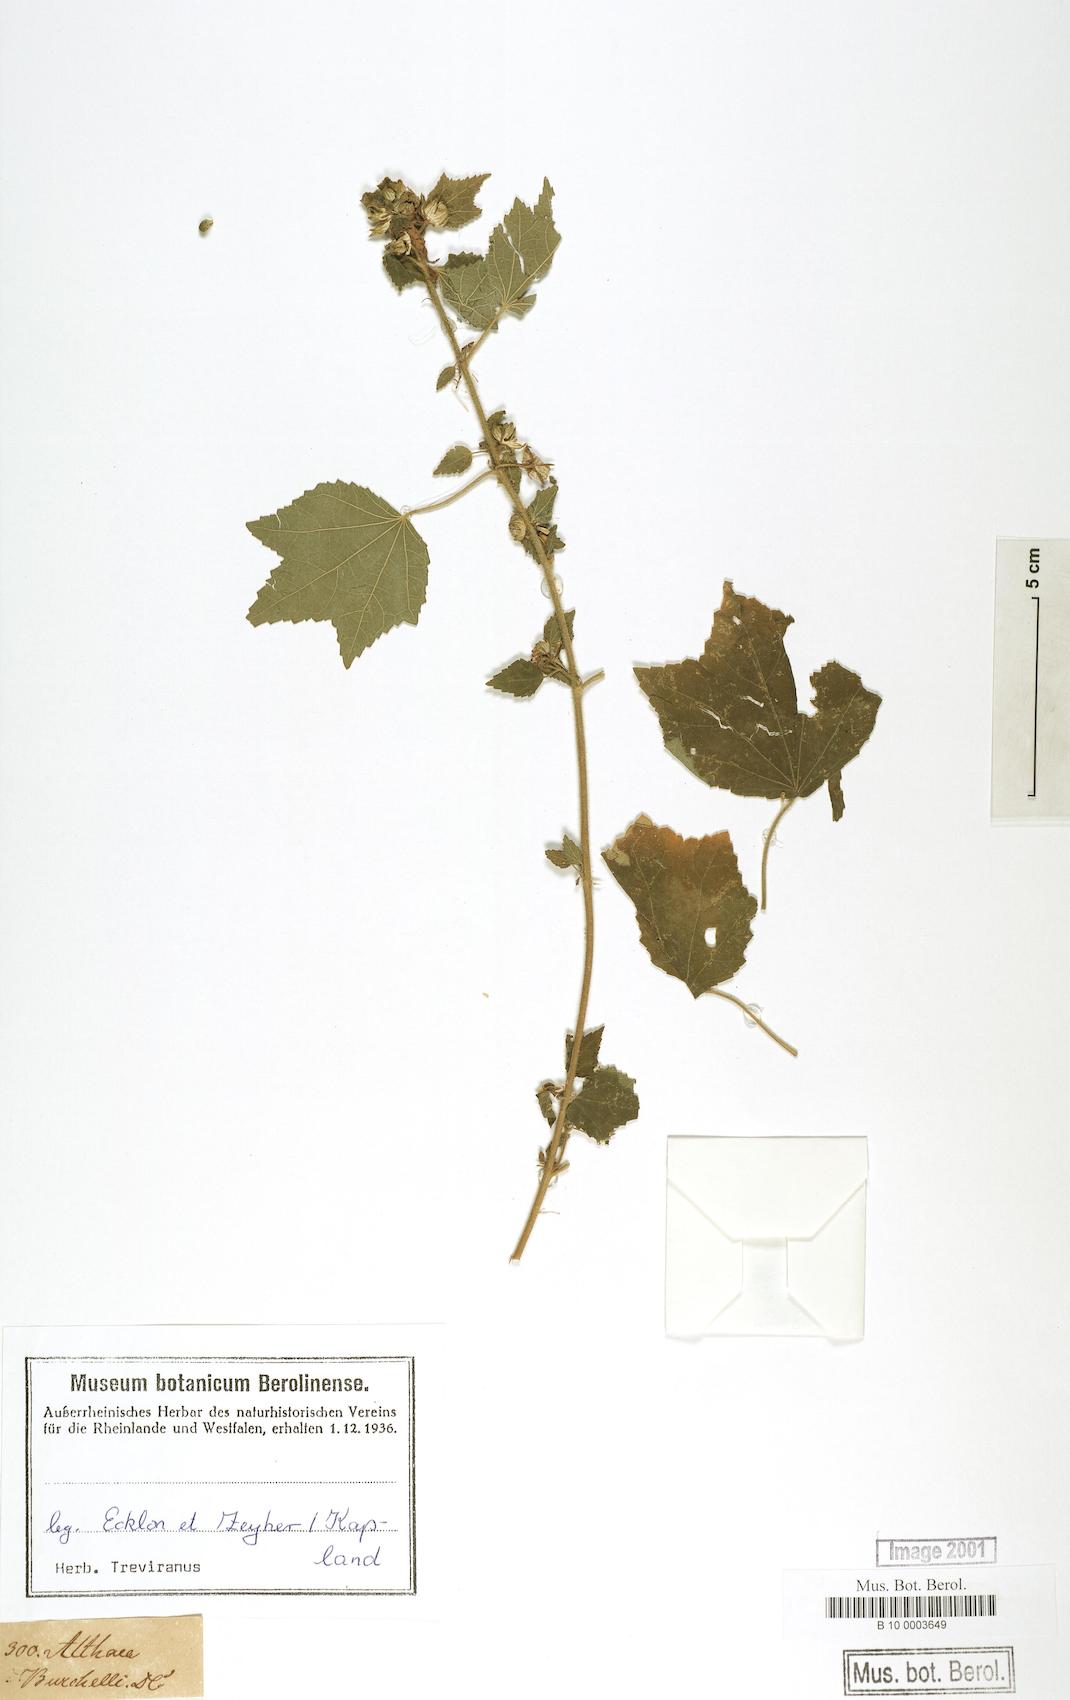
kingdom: Plantae
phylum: Tracheophyta
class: Magnoliopsida
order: Malvales
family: Malvaceae
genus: Pavonia
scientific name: Pavonia columella
